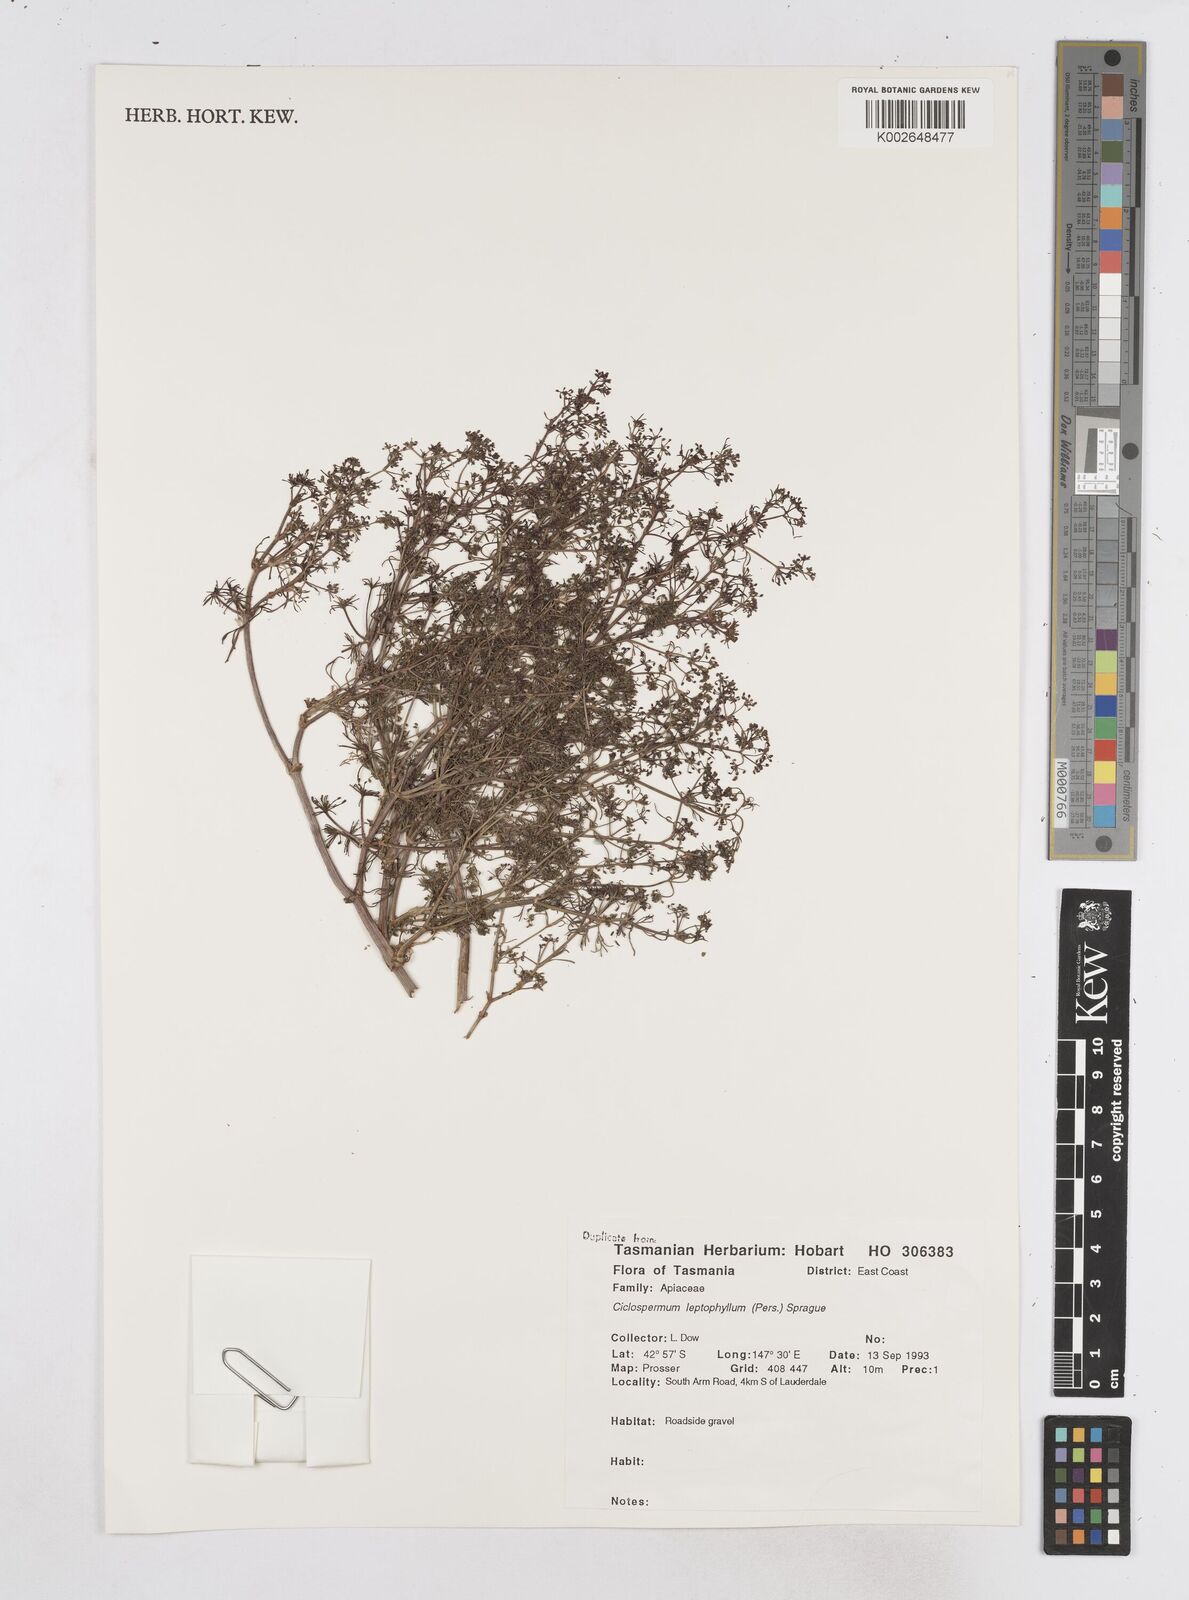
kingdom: Plantae
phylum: Tracheophyta
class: Magnoliopsida
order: Apiales
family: Apiaceae
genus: Cyclospermum
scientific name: Cyclospermum leptophyllum
